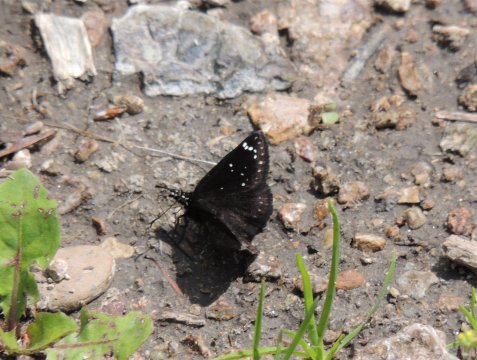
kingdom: Animalia
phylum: Arthropoda
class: Insecta
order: Lepidoptera
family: Hesperiidae
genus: Pholisora
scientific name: Pholisora catullus
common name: Common Sootywing
